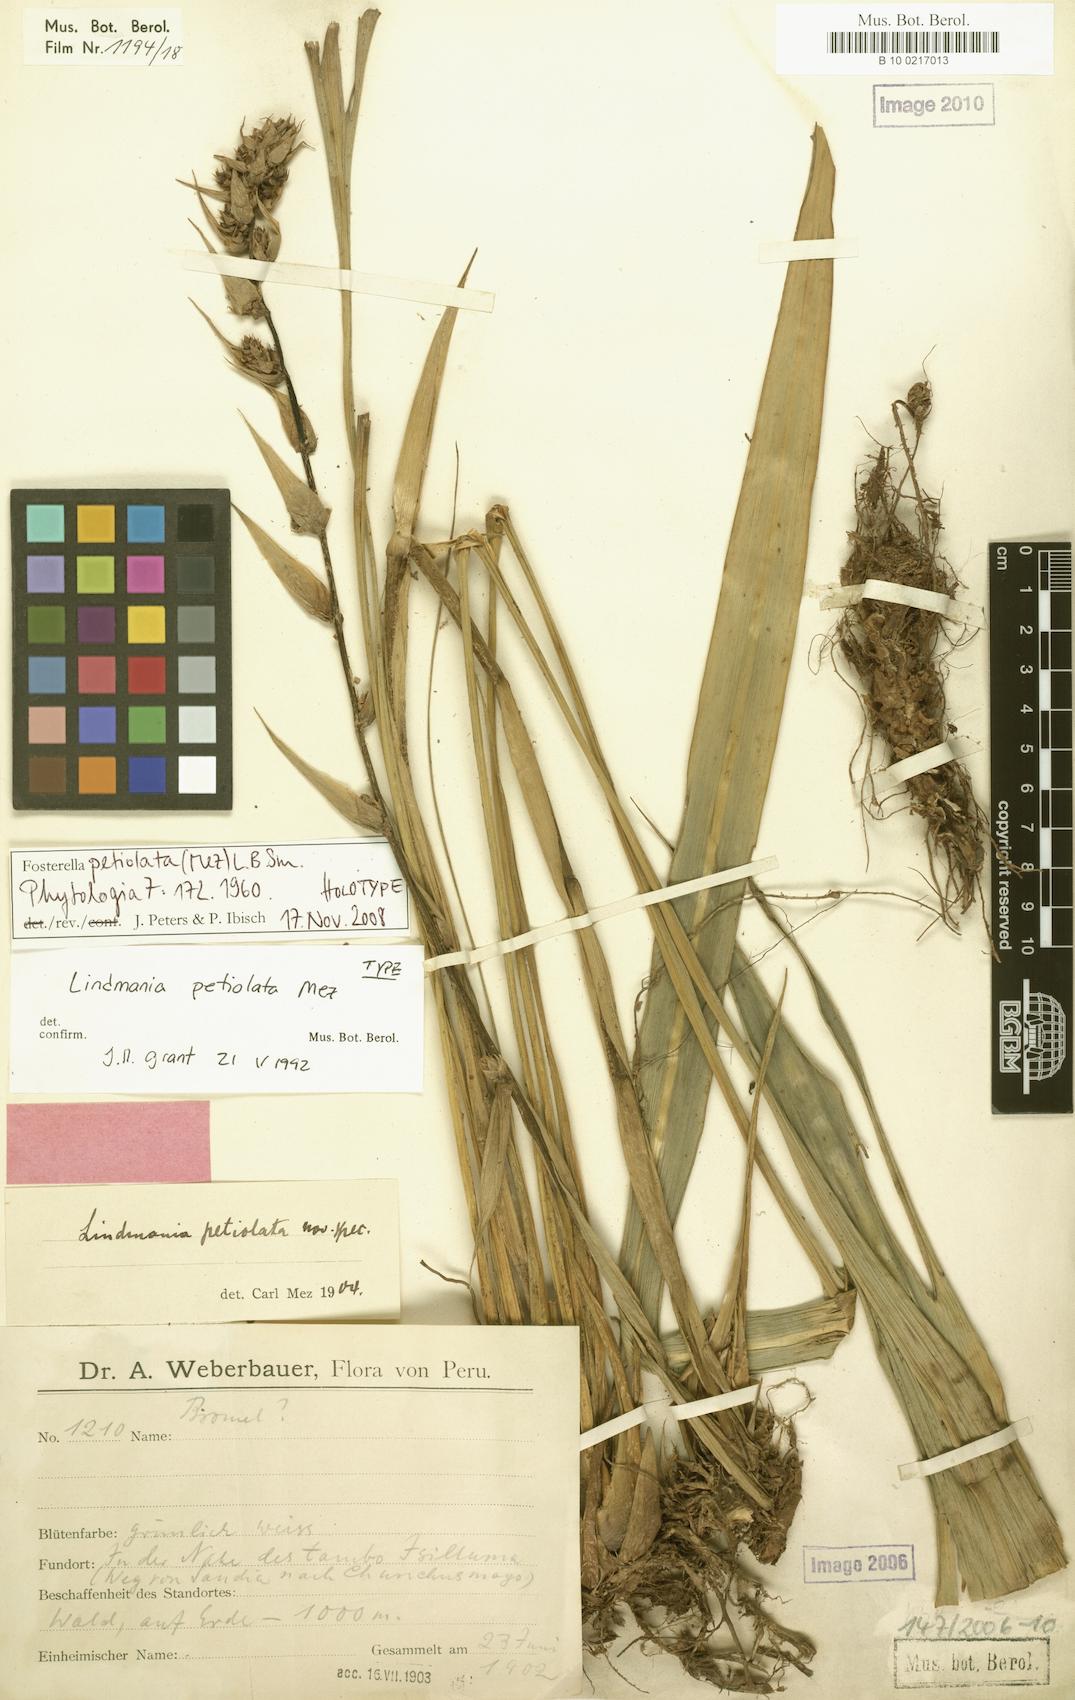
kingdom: Plantae
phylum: Tracheophyta
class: Liliopsida
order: Poales
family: Bromeliaceae
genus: Fosterella
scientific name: Fosterella petiolata
